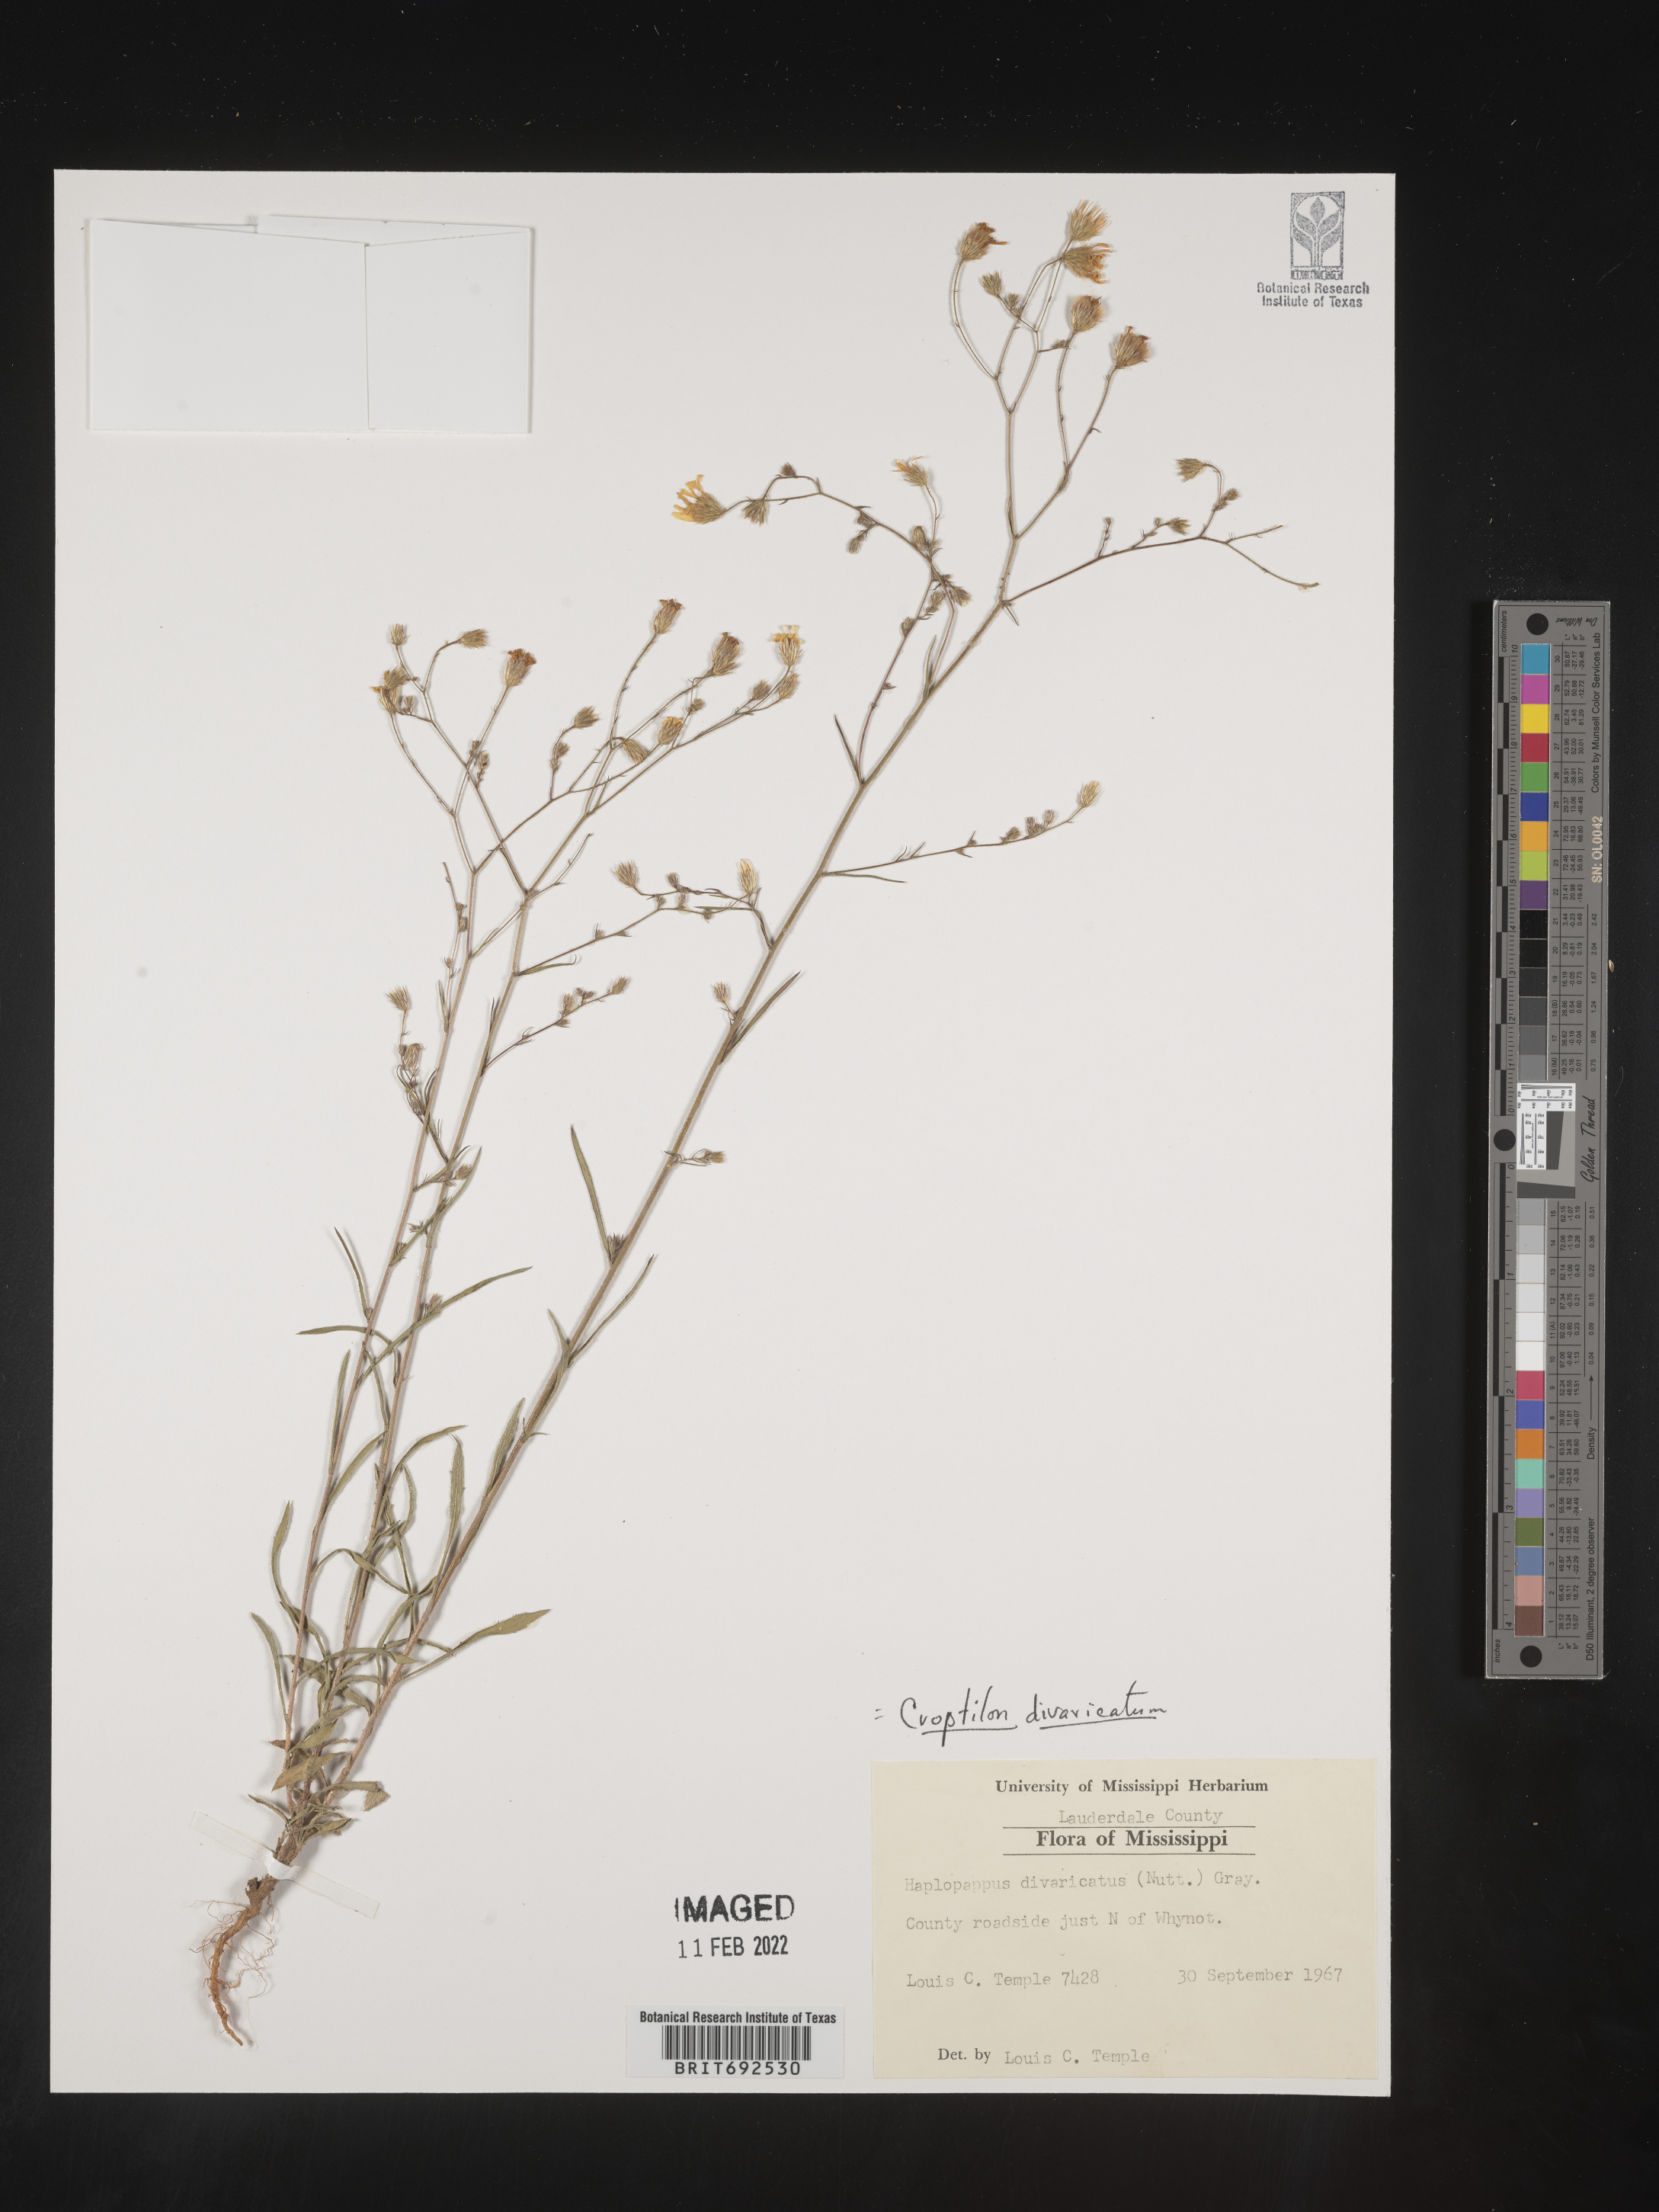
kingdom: Plantae
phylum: Tracheophyta
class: Magnoliopsida
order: Asterales
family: Asteraceae
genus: Croptilon
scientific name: Croptilon divaricatum
